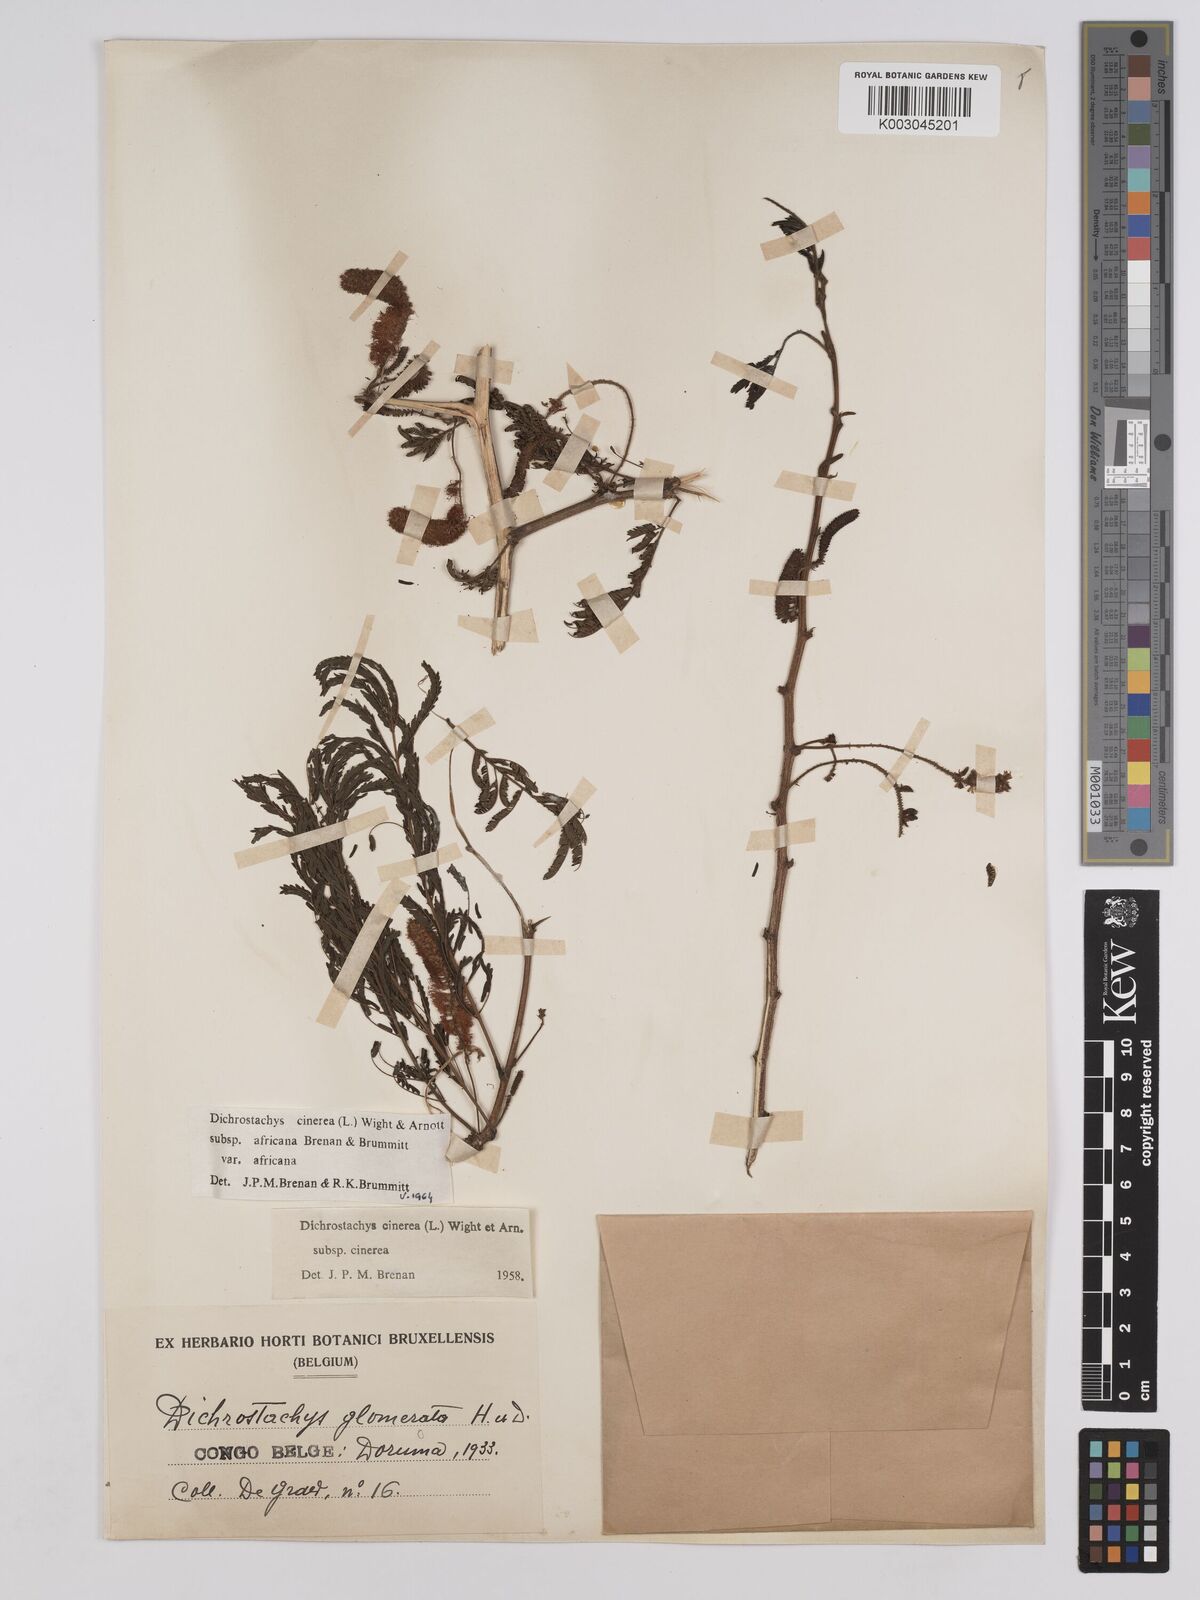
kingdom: Plantae
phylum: Tracheophyta
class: Magnoliopsida
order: Fabales
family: Fabaceae
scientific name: Fabaceae
